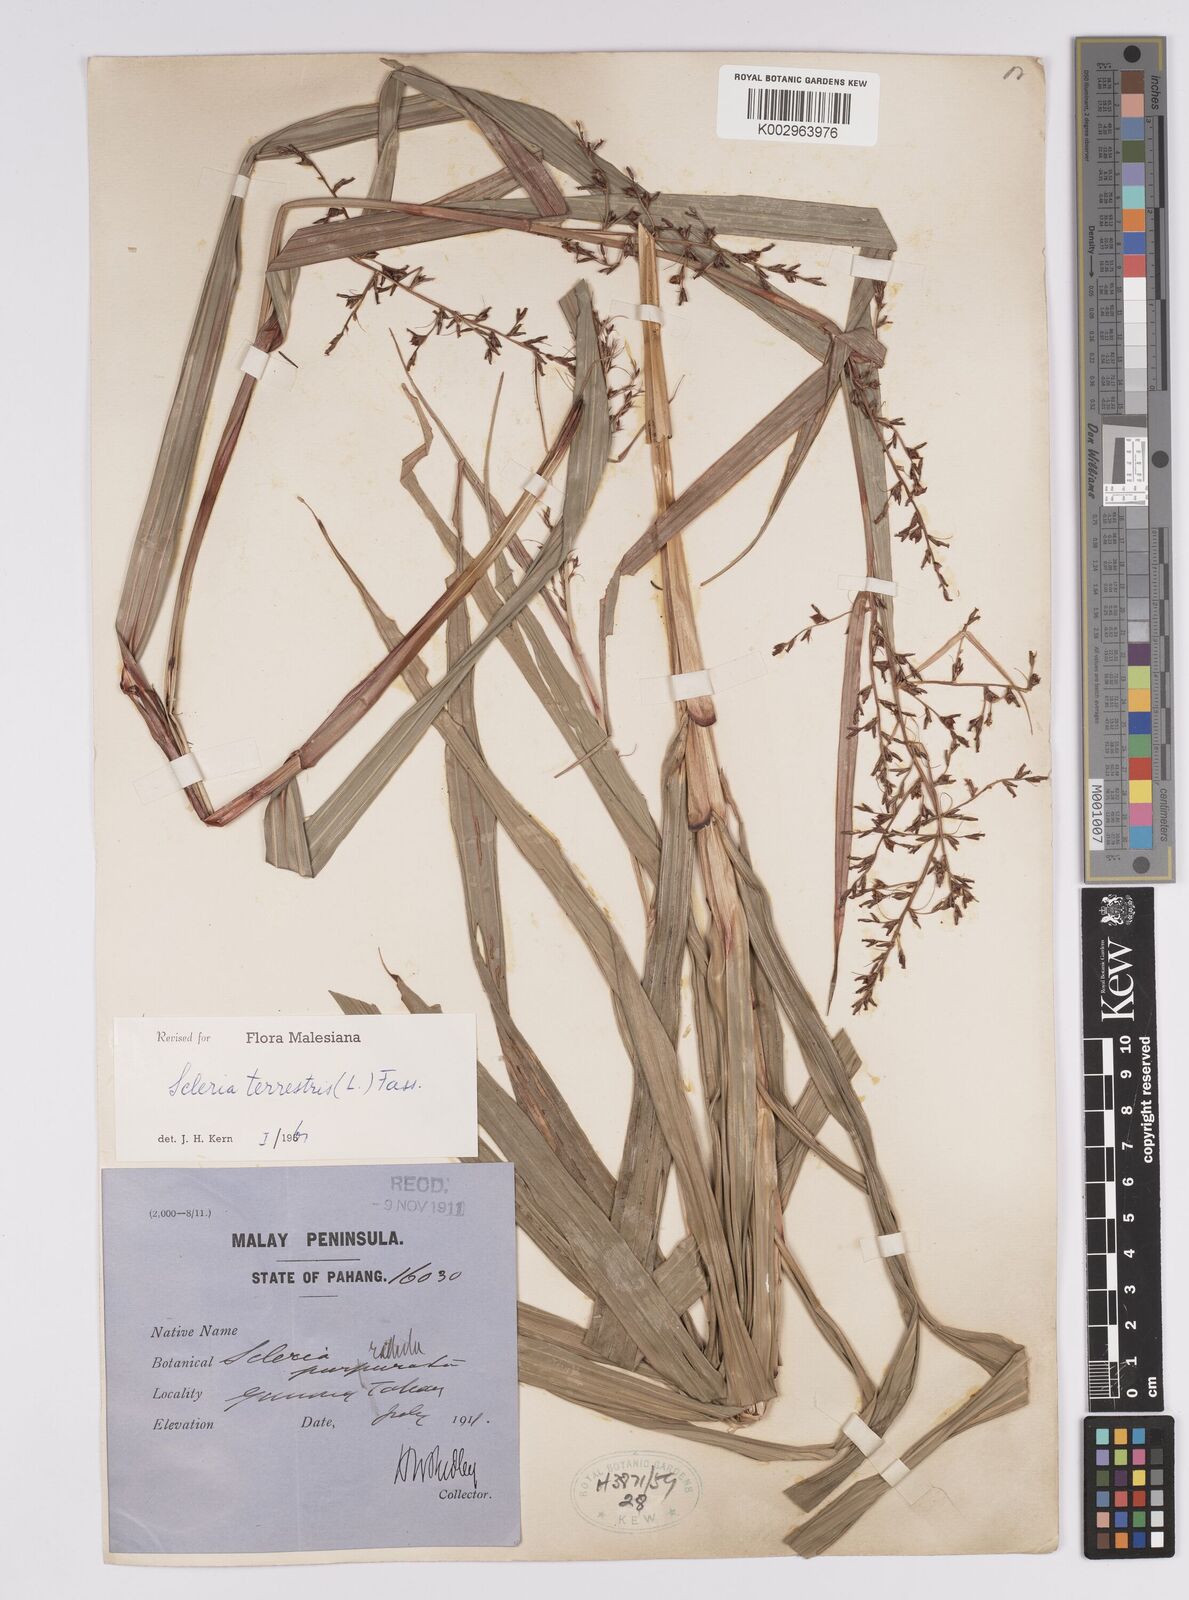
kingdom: Plantae
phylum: Tracheophyta
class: Liliopsida
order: Poales
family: Cyperaceae
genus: Scleria
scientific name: Scleria terrestris
